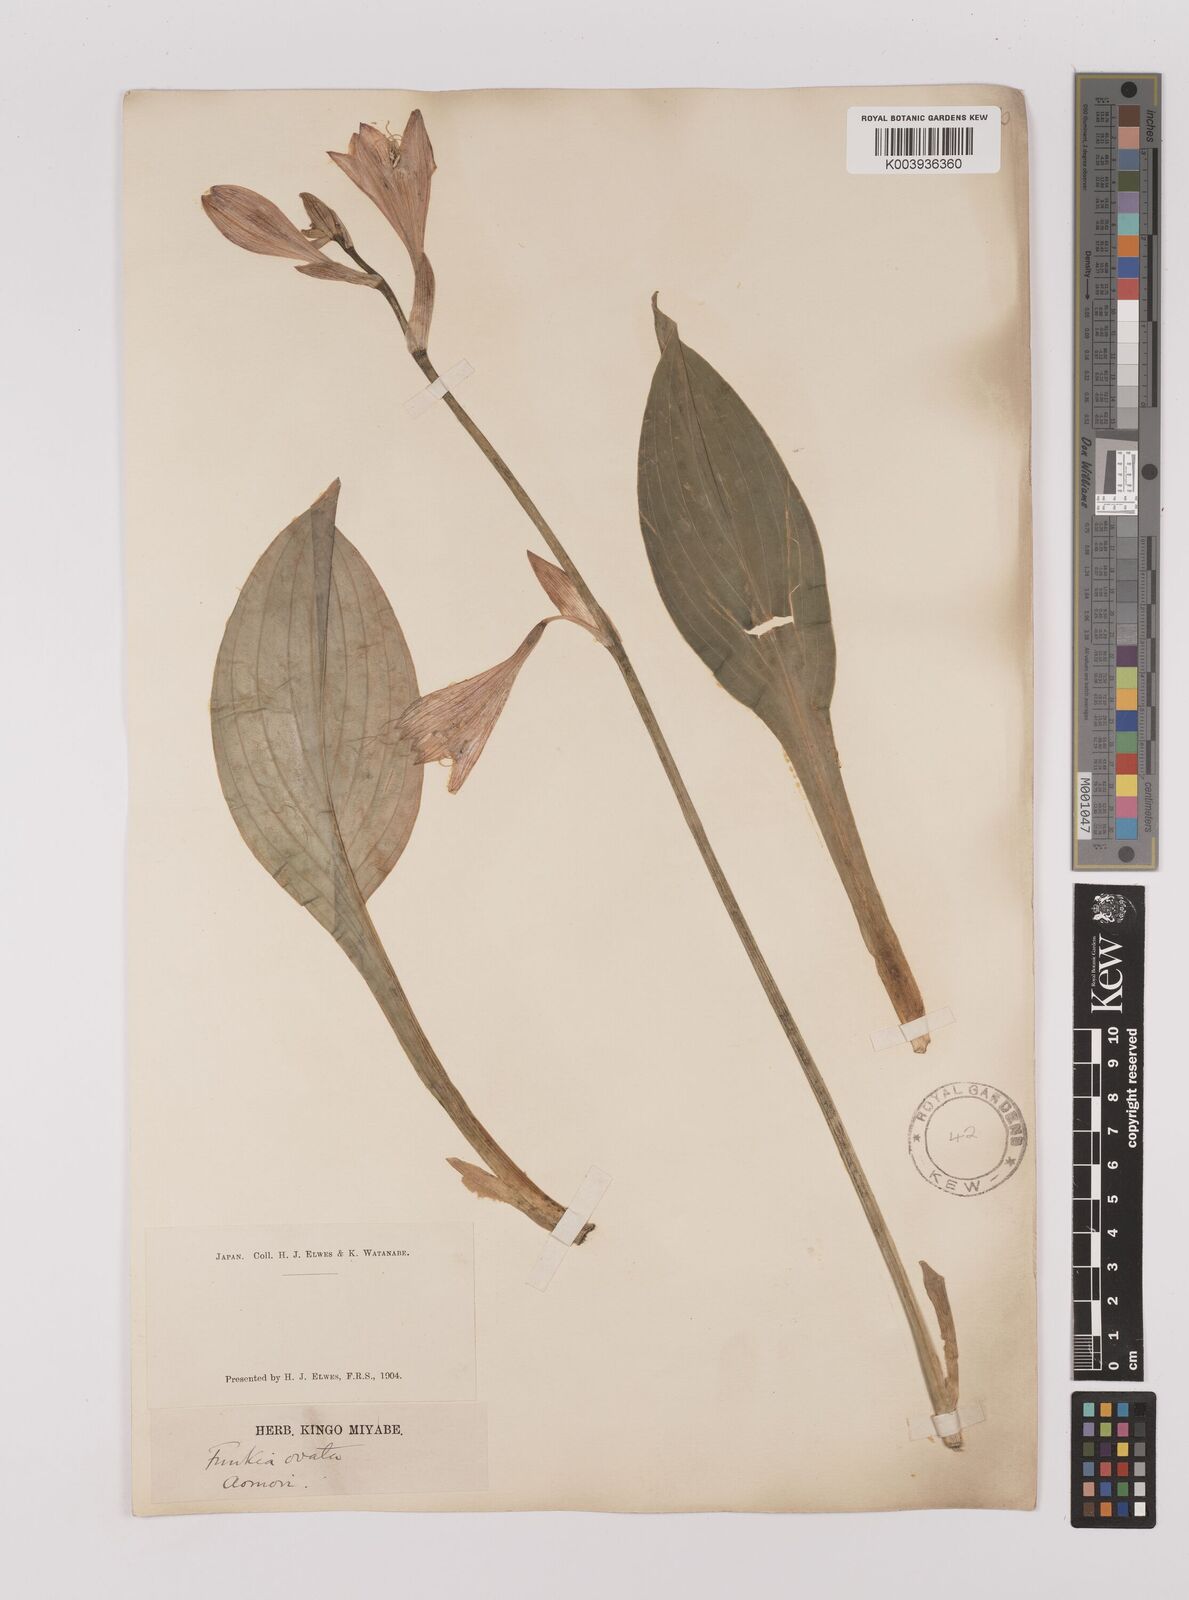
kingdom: Plantae
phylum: Tracheophyta
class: Liliopsida
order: Asparagales
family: Asparagaceae
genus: Hosta
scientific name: Hosta sieboldii
